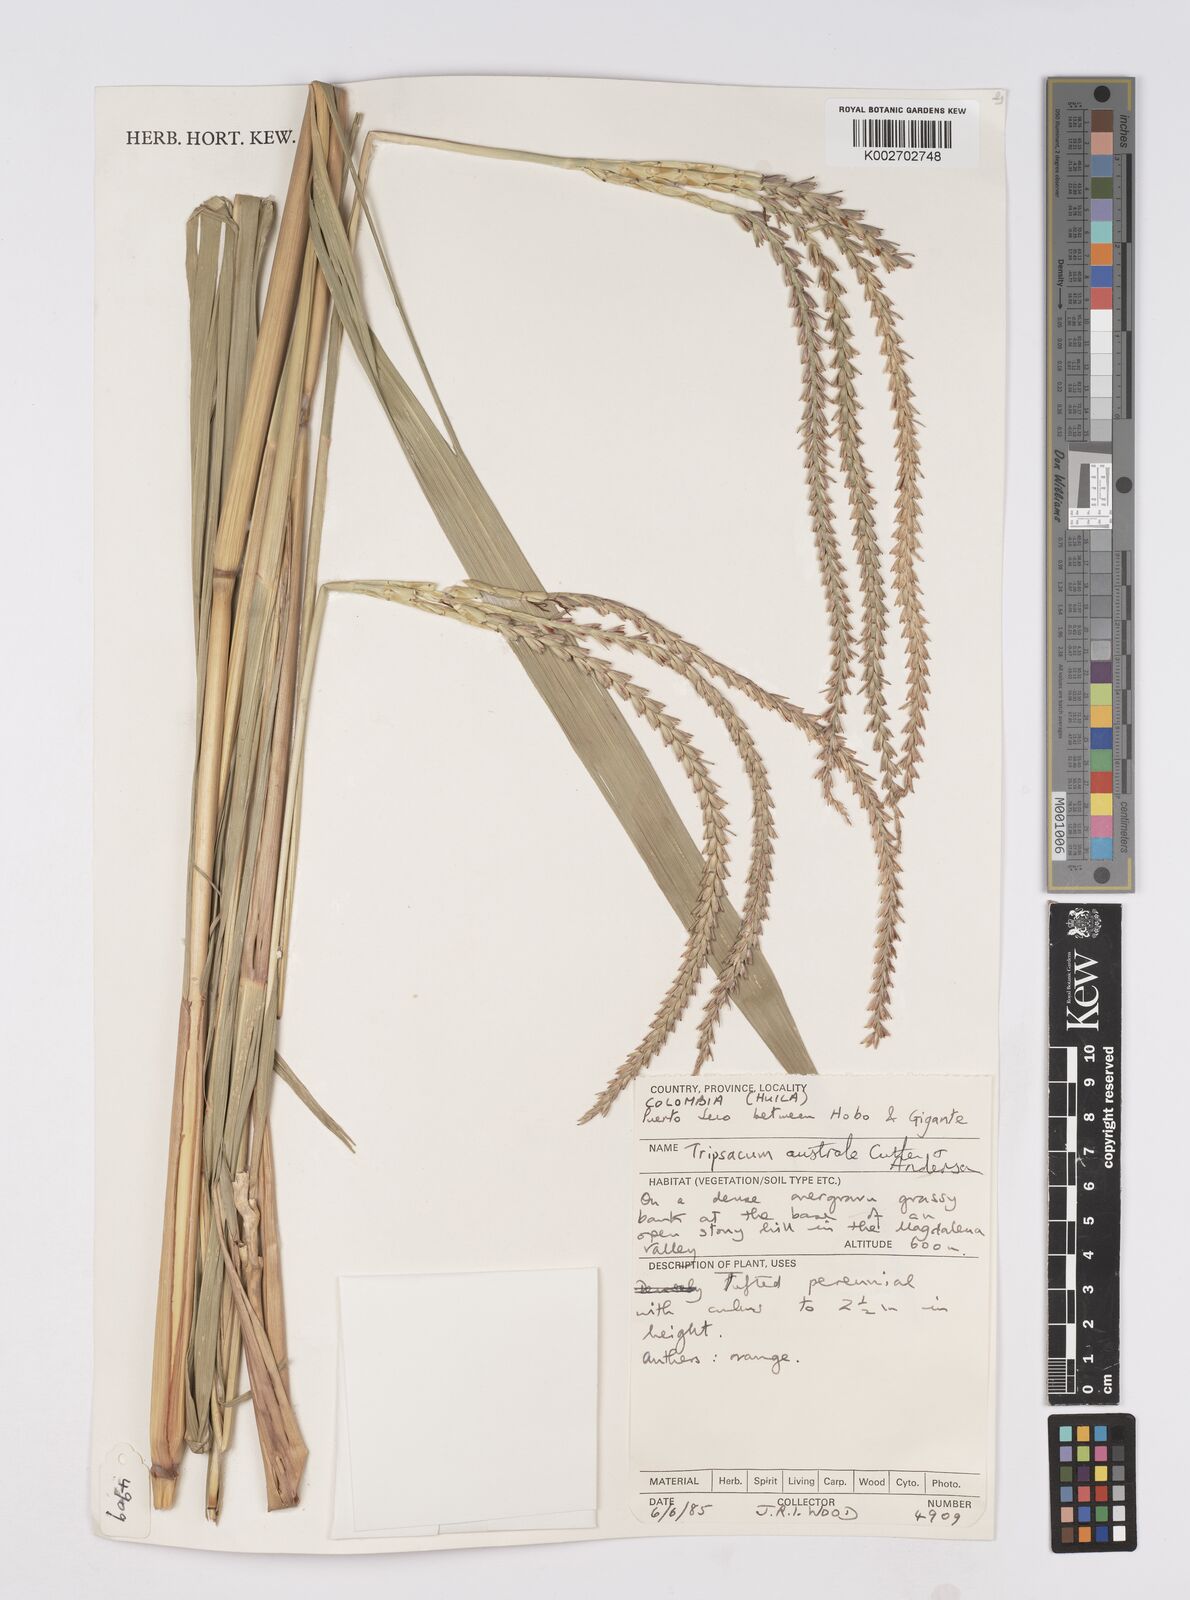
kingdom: Plantae
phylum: Tracheophyta
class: Liliopsida
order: Poales
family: Poaceae
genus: Tripsacum
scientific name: Tripsacum australe
